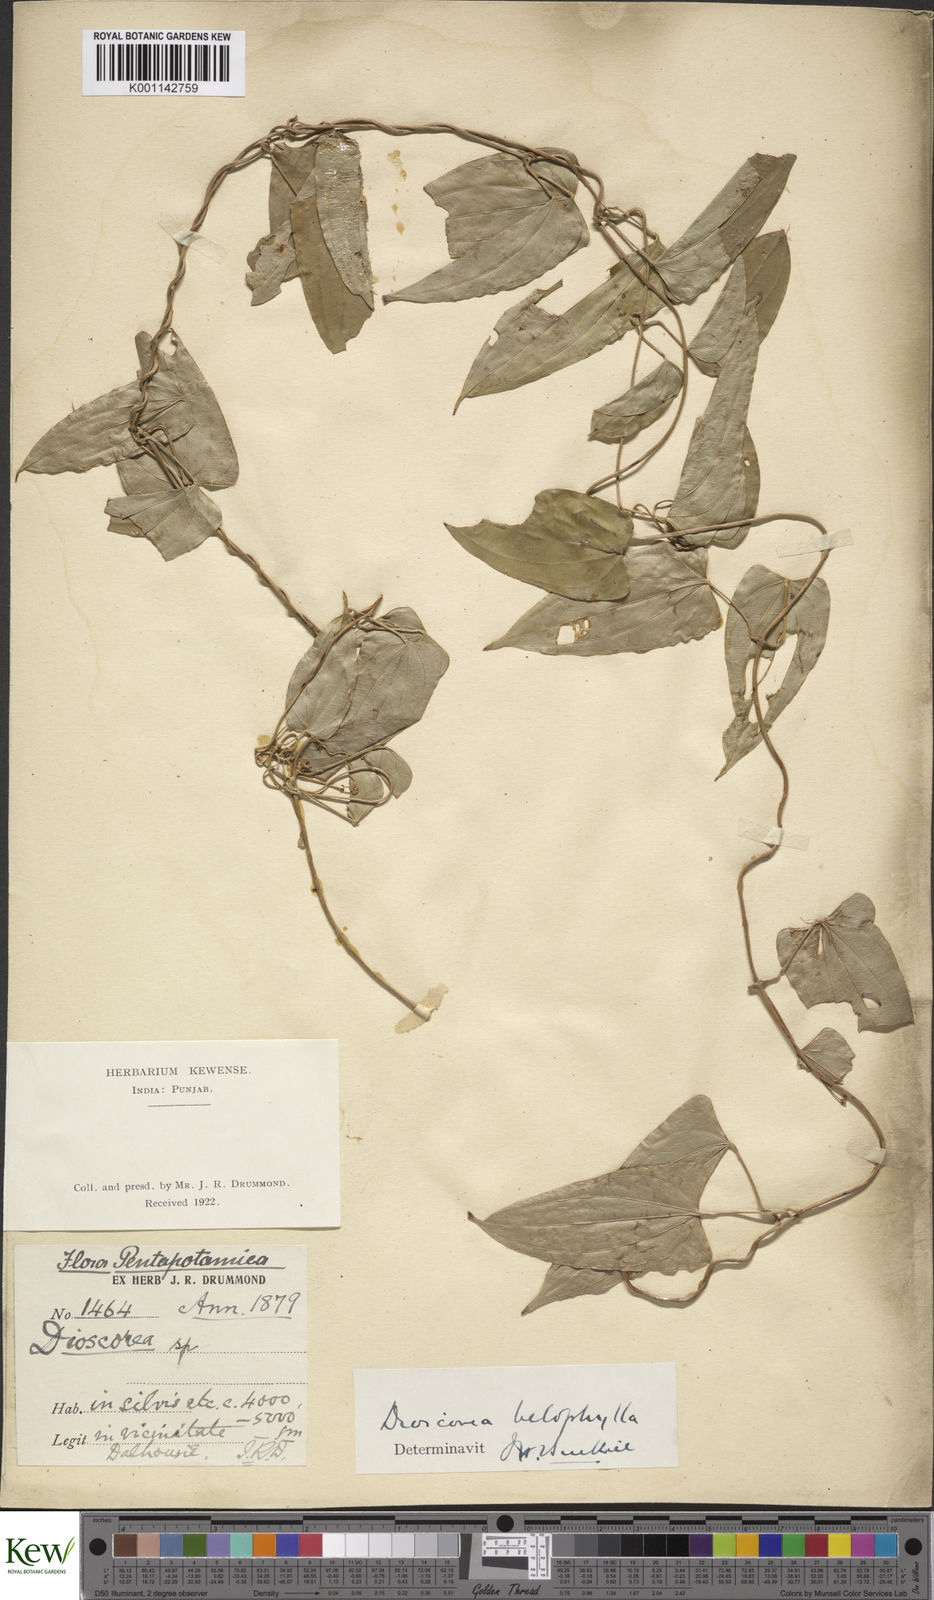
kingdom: Plantae
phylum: Tracheophyta
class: Liliopsida
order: Dioscoreales
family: Dioscoreaceae
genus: Dioscorea
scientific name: Dioscorea belophylla
